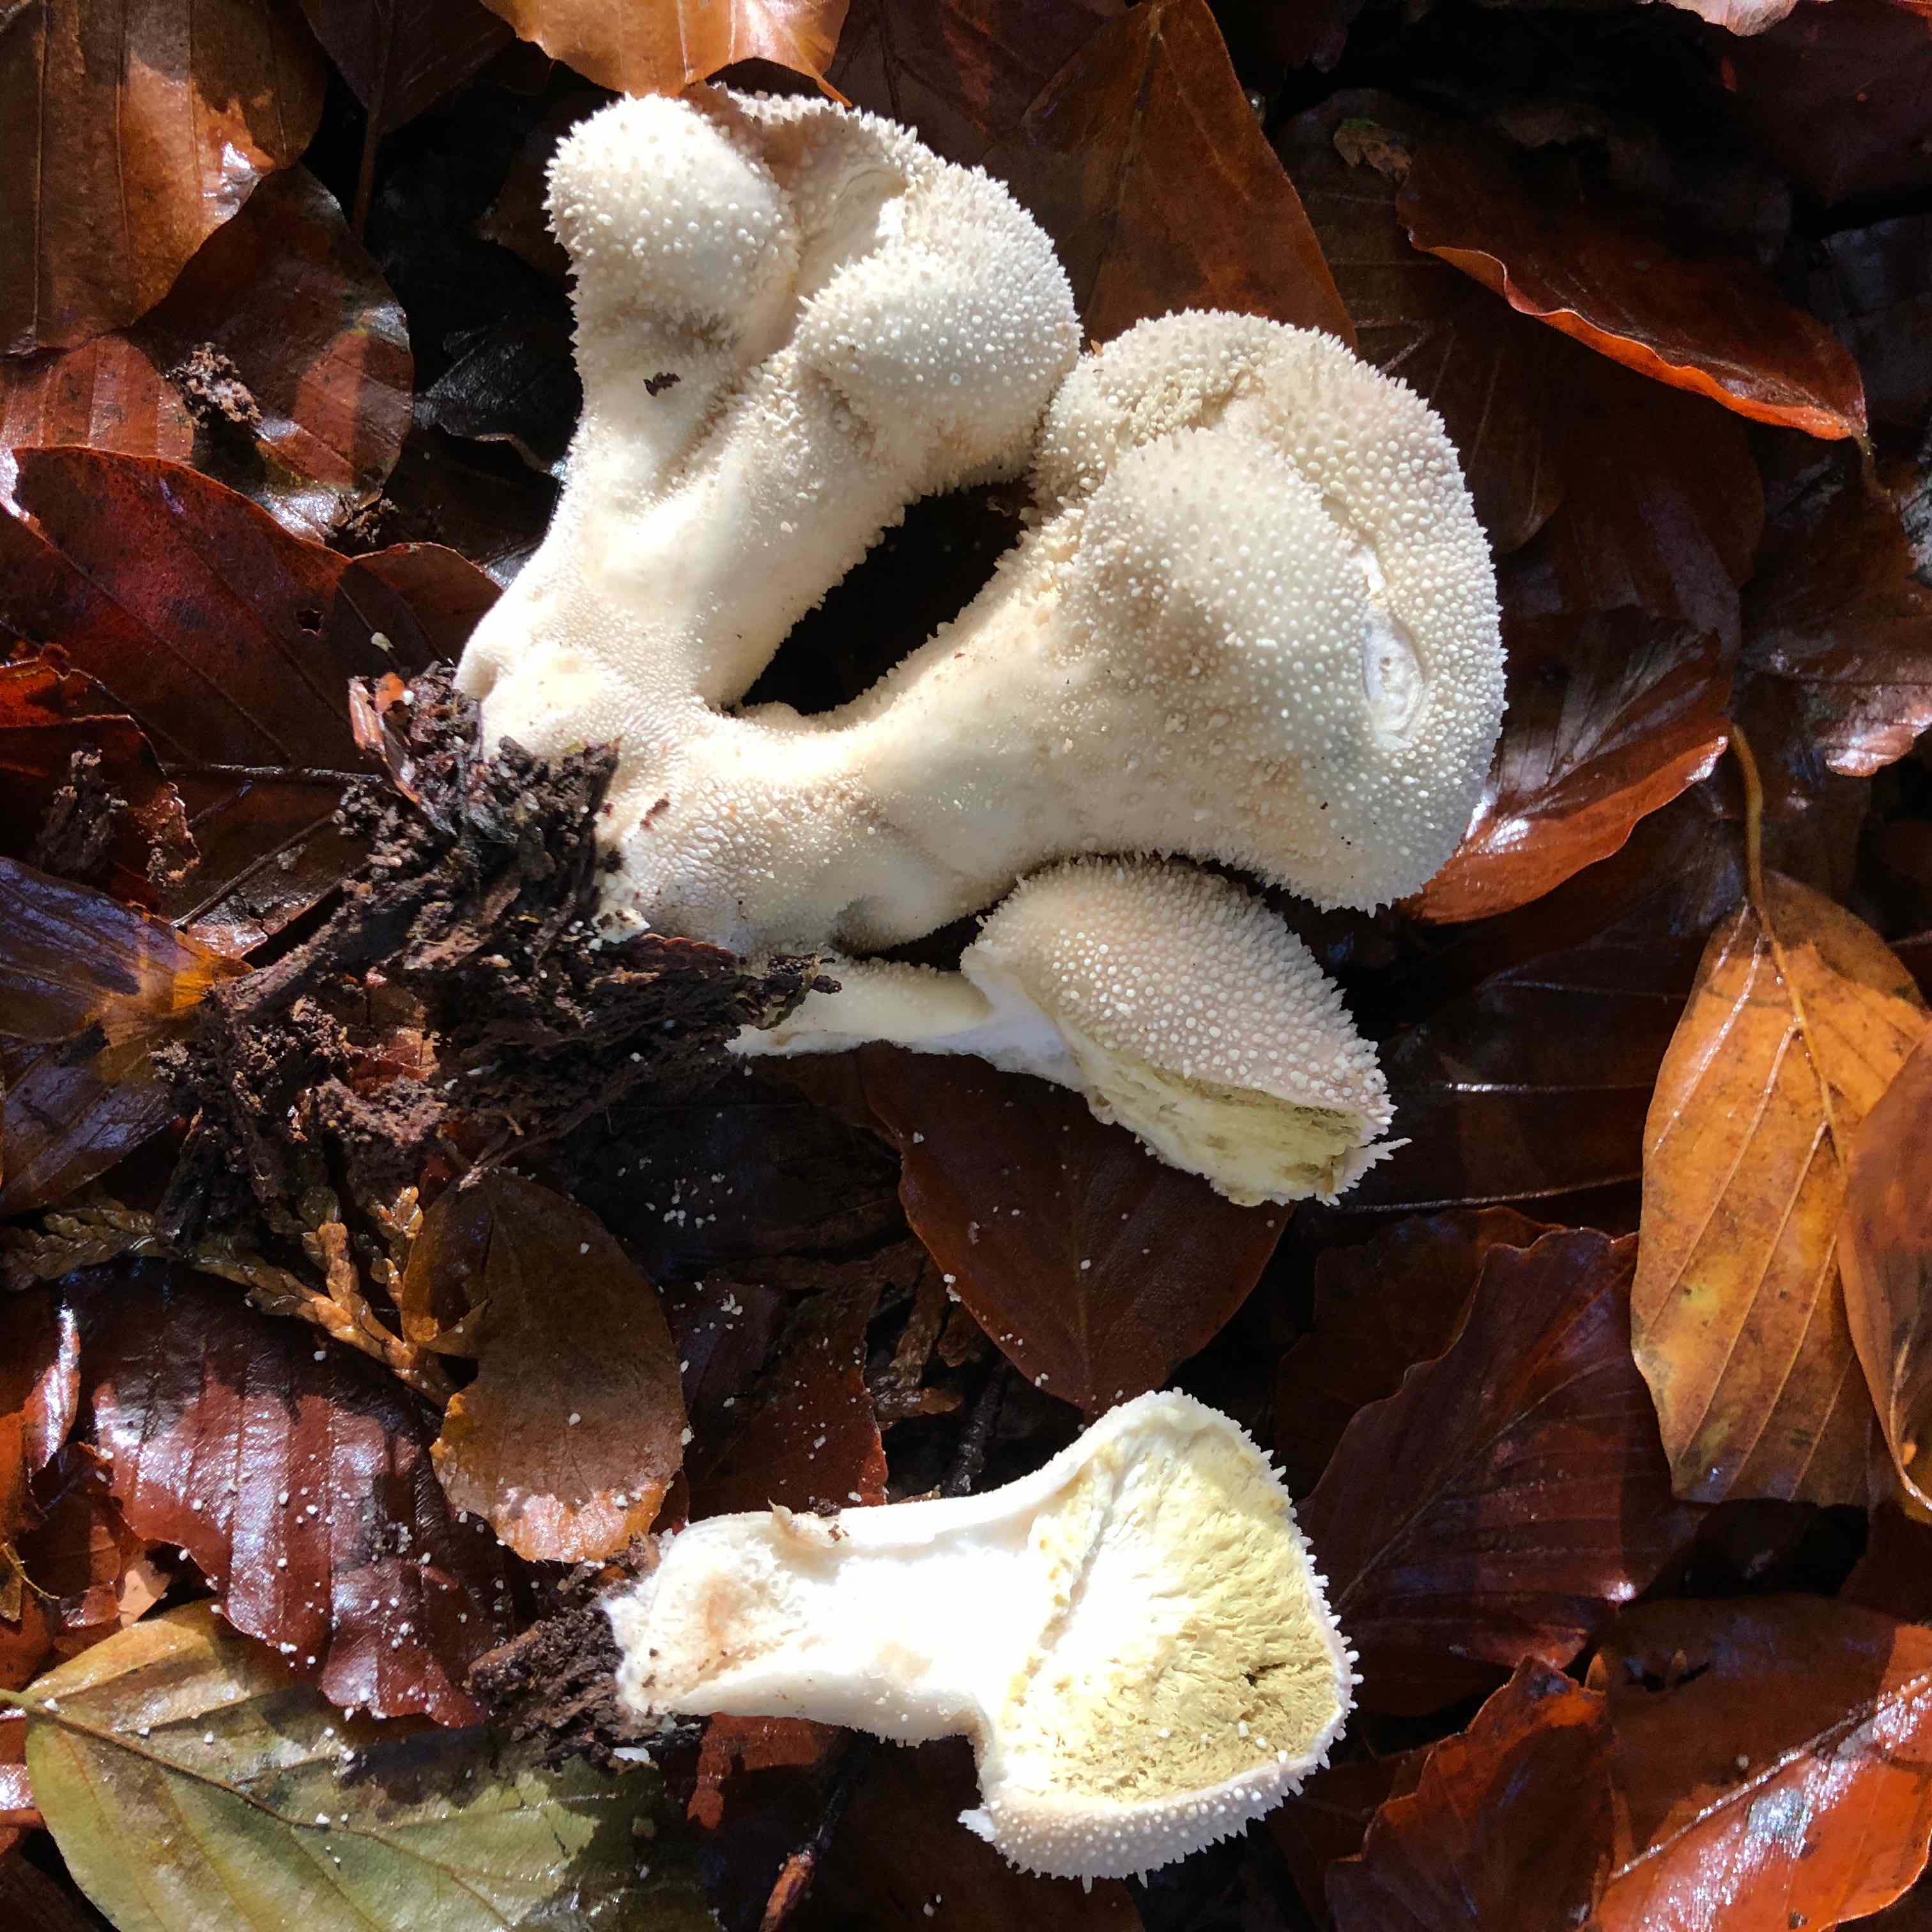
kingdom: Fungi
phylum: Basidiomycota
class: Agaricomycetes
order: Agaricales
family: Lycoperdaceae
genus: Lycoperdon
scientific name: Lycoperdon perlatum
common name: krystal-støvbold
